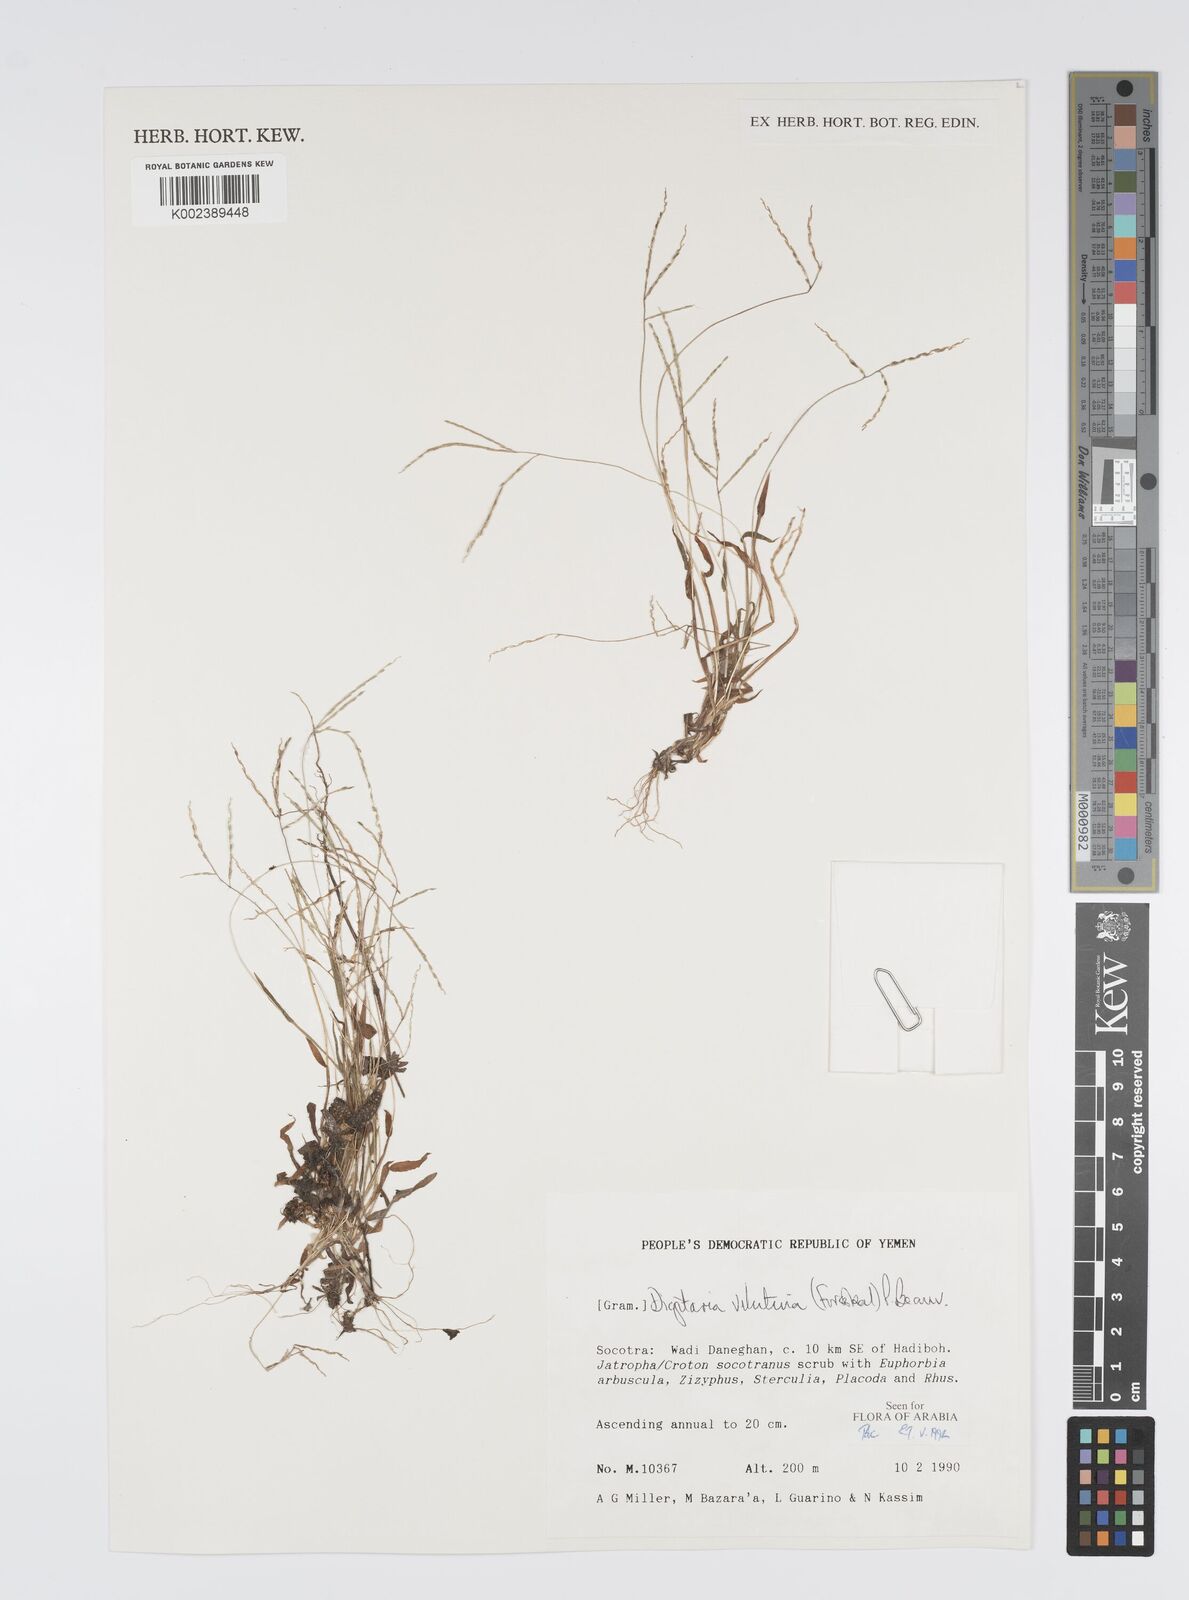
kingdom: Plantae
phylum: Tracheophyta
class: Liliopsida
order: Poales
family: Poaceae
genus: Digitaria
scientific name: Digitaria velutina
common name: Long-plume finger grass
